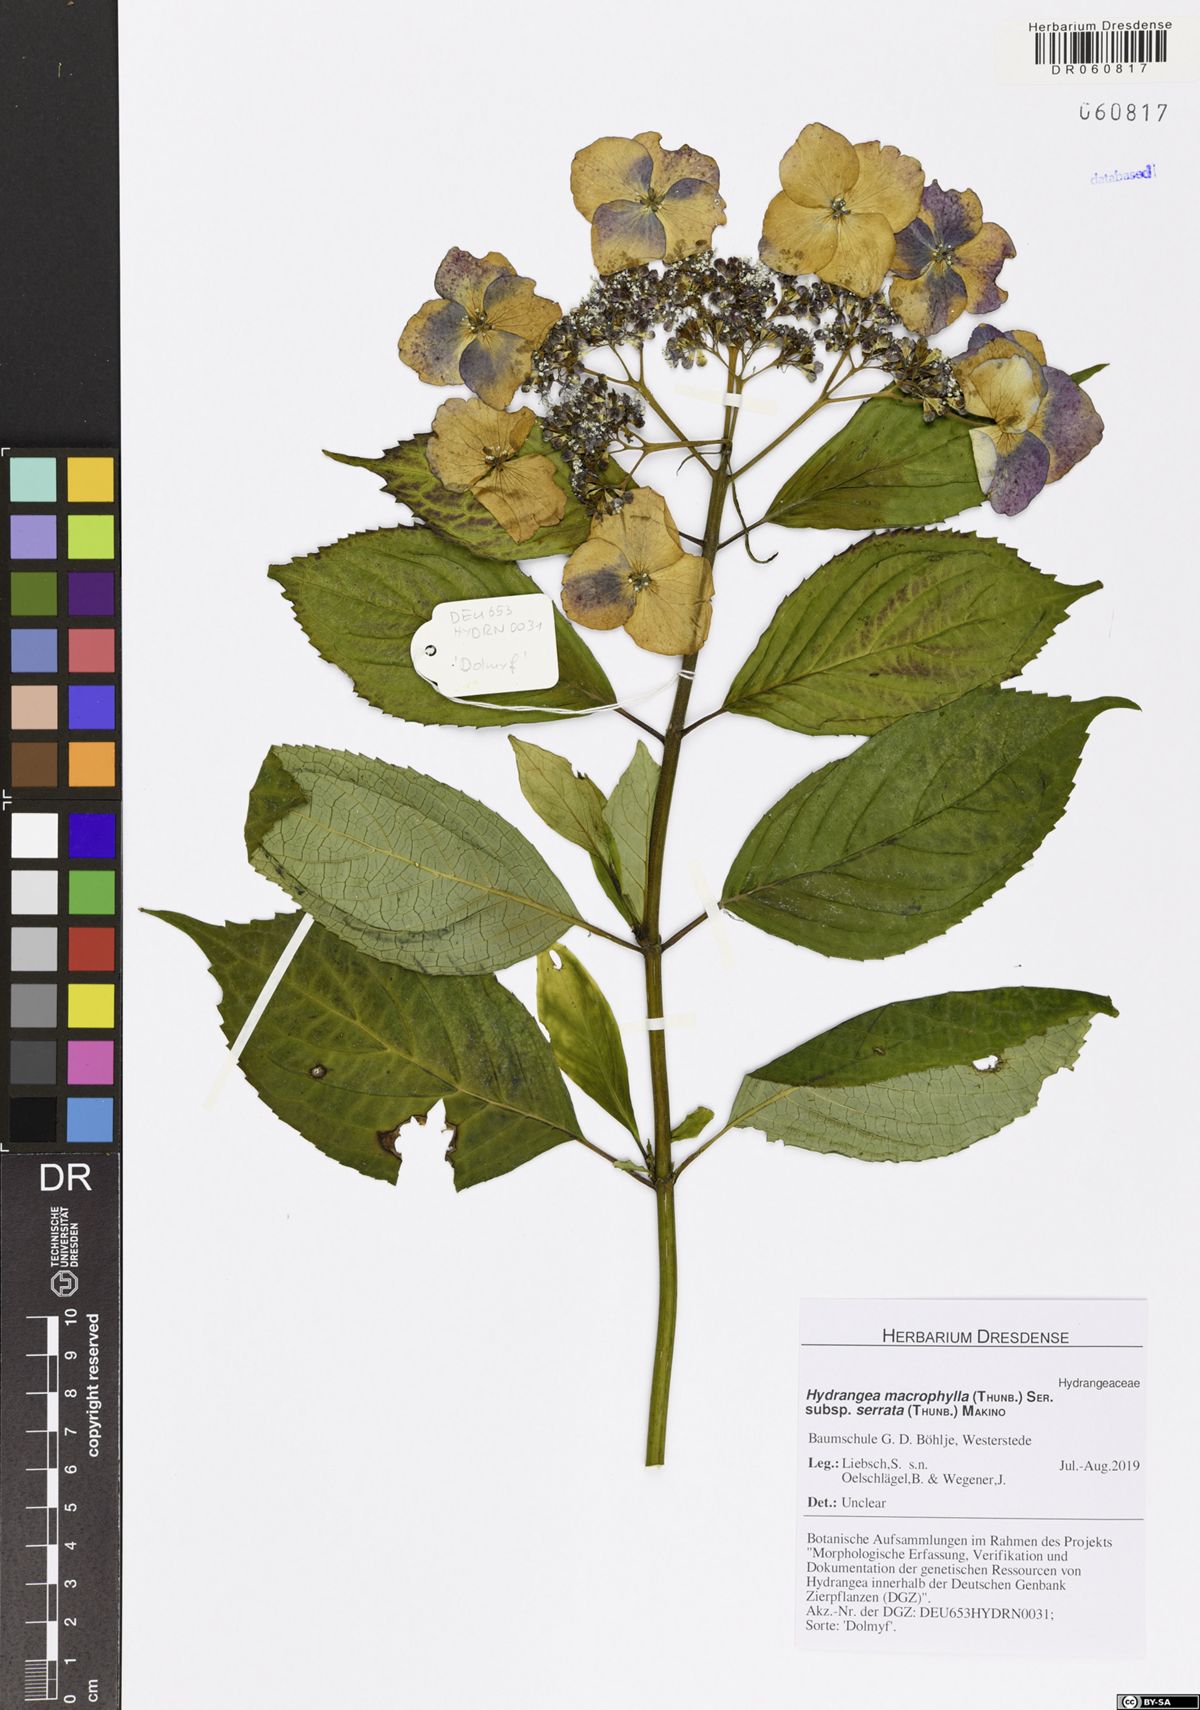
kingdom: Plantae
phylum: Tracheophyta
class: Magnoliopsida
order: Cornales
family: Hydrangeaceae
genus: Hydrangea
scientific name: Hydrangea serrata
